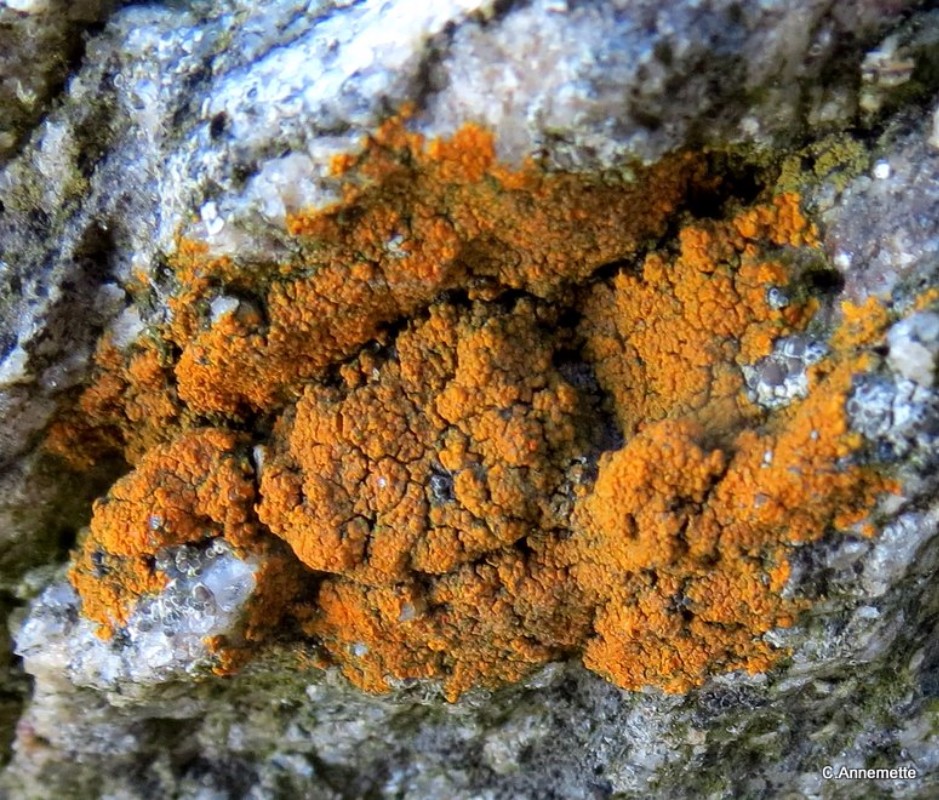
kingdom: Fungi
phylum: Ascomycota
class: Lecanoromycetes
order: Teloschistales
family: Teloschistaceae
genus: Flavoplaca
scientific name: Flavoplaca marina
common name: strand-orangelav
